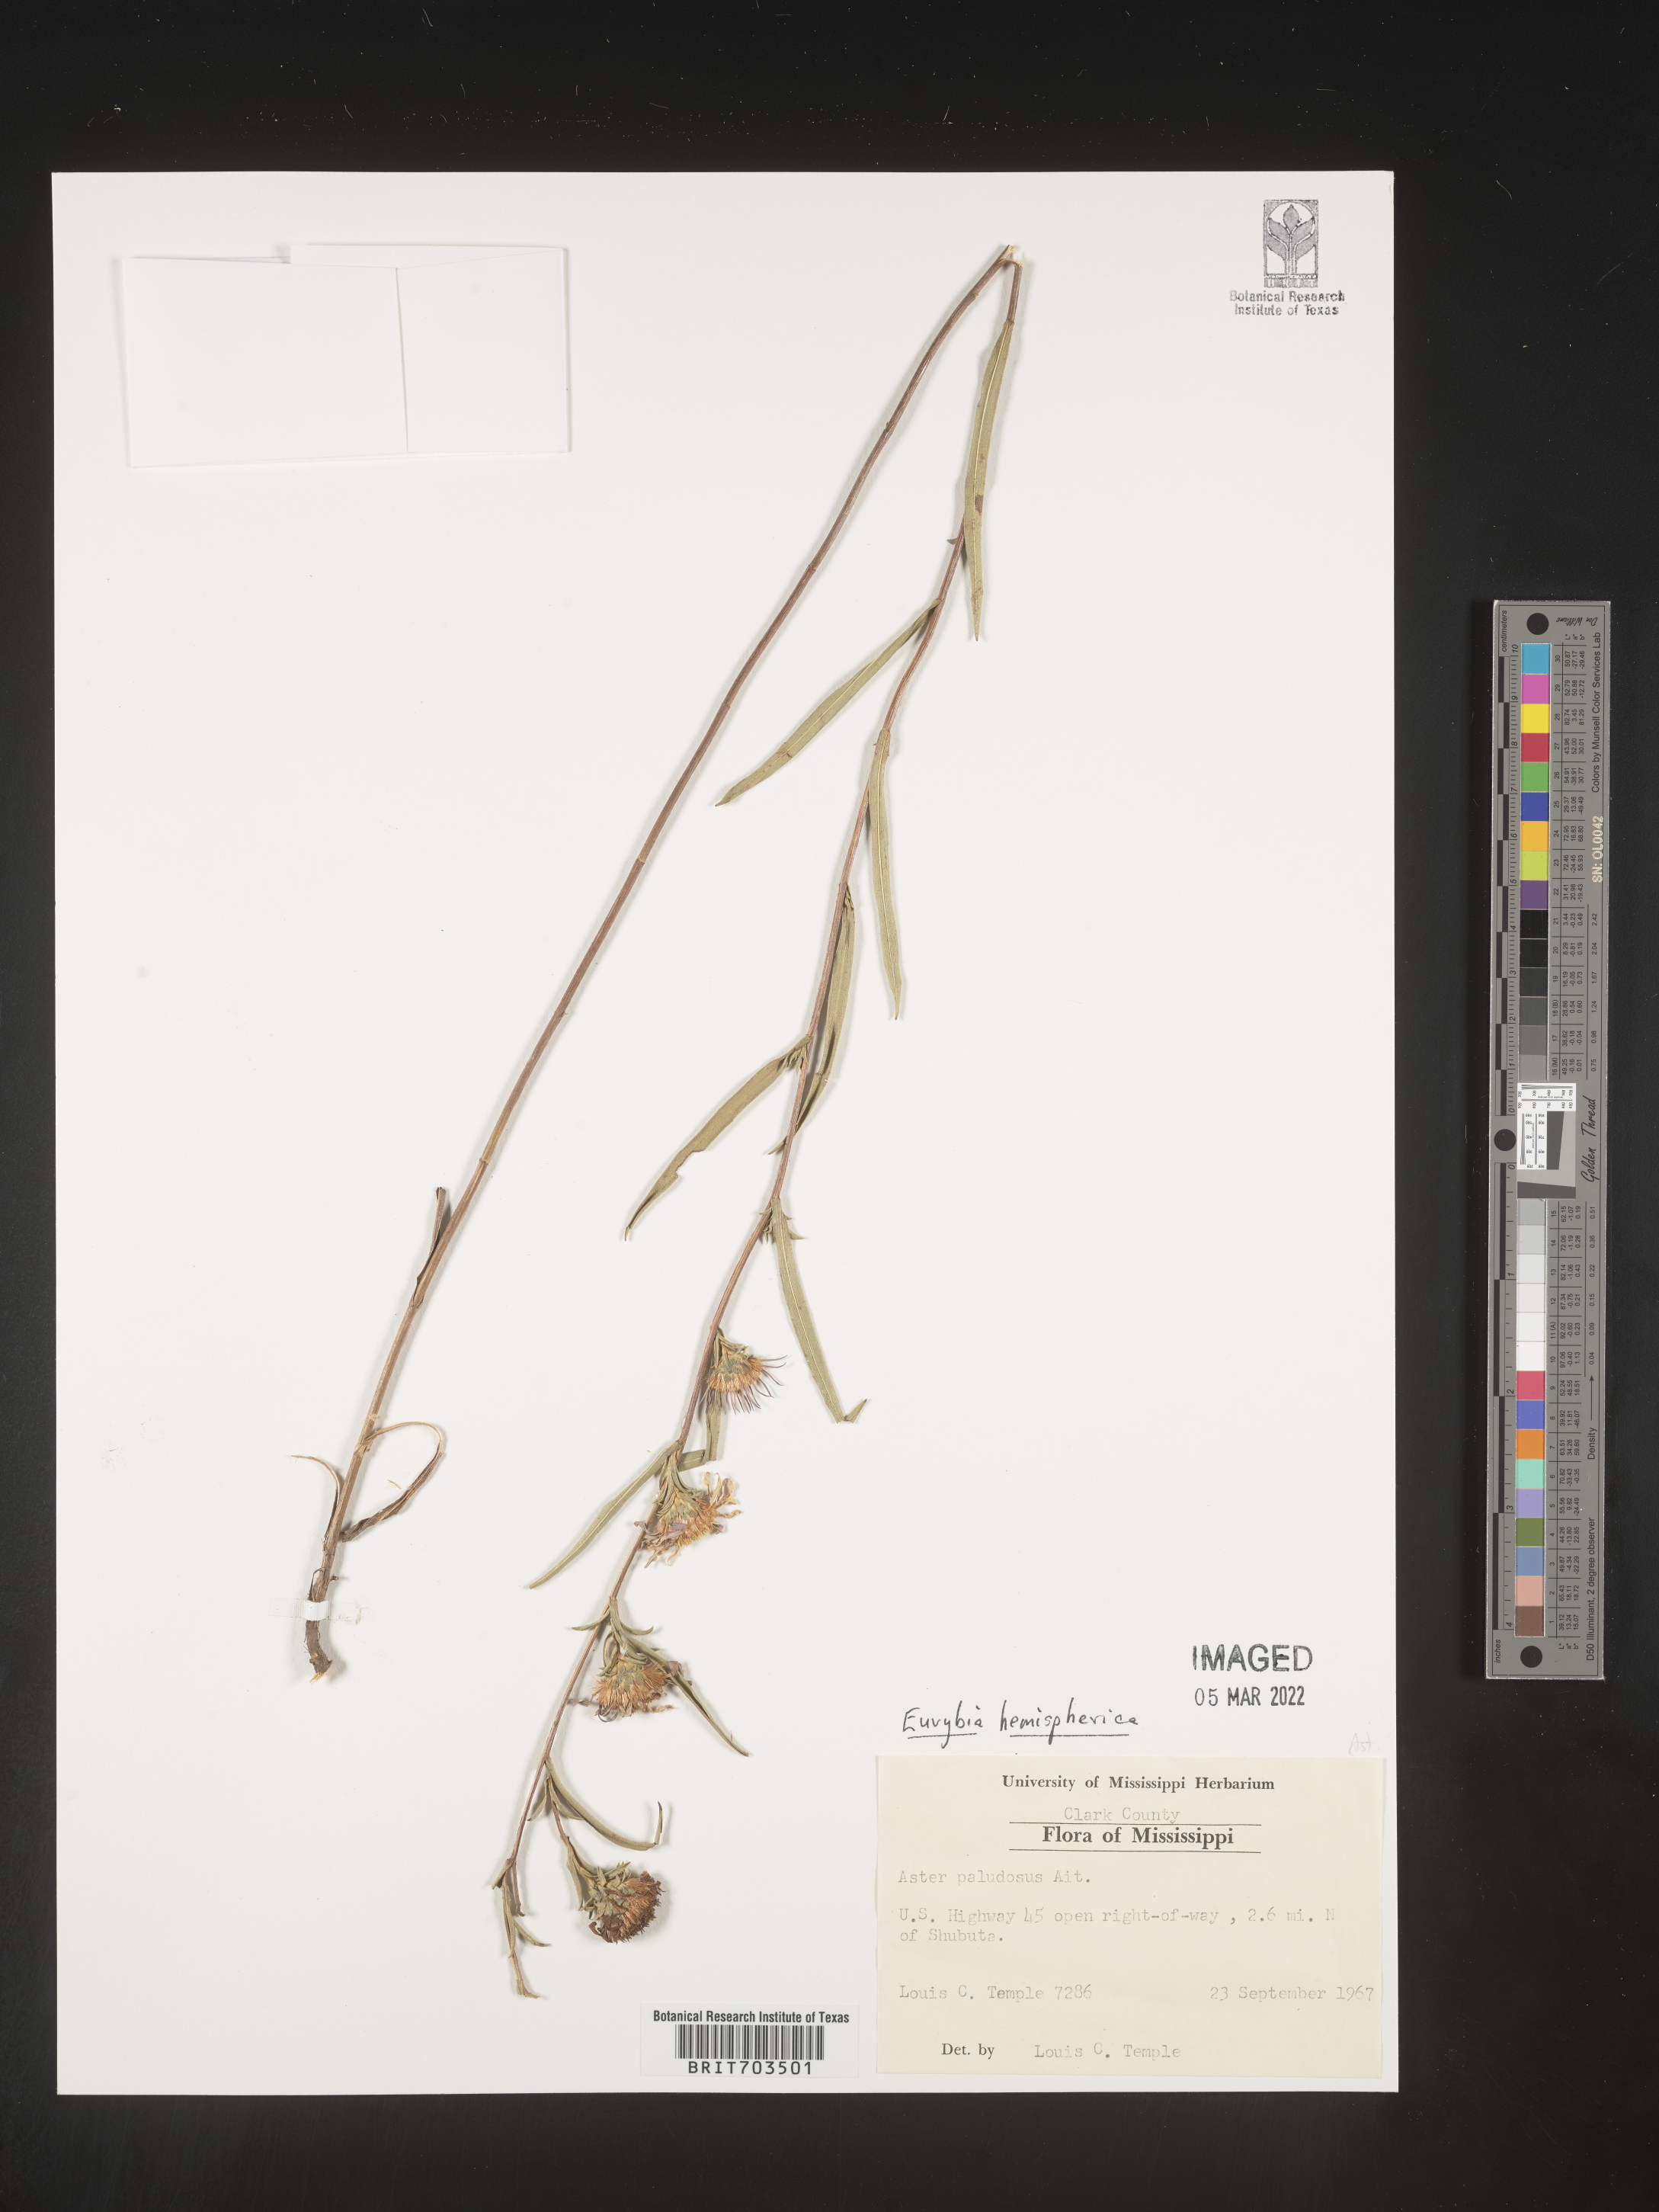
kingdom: Plantae
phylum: Tracheophyta
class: Magnoliopsida
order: Asterales
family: Asteraceae
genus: Eurybia
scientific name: Eurybia hemispherica
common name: Showy aster
